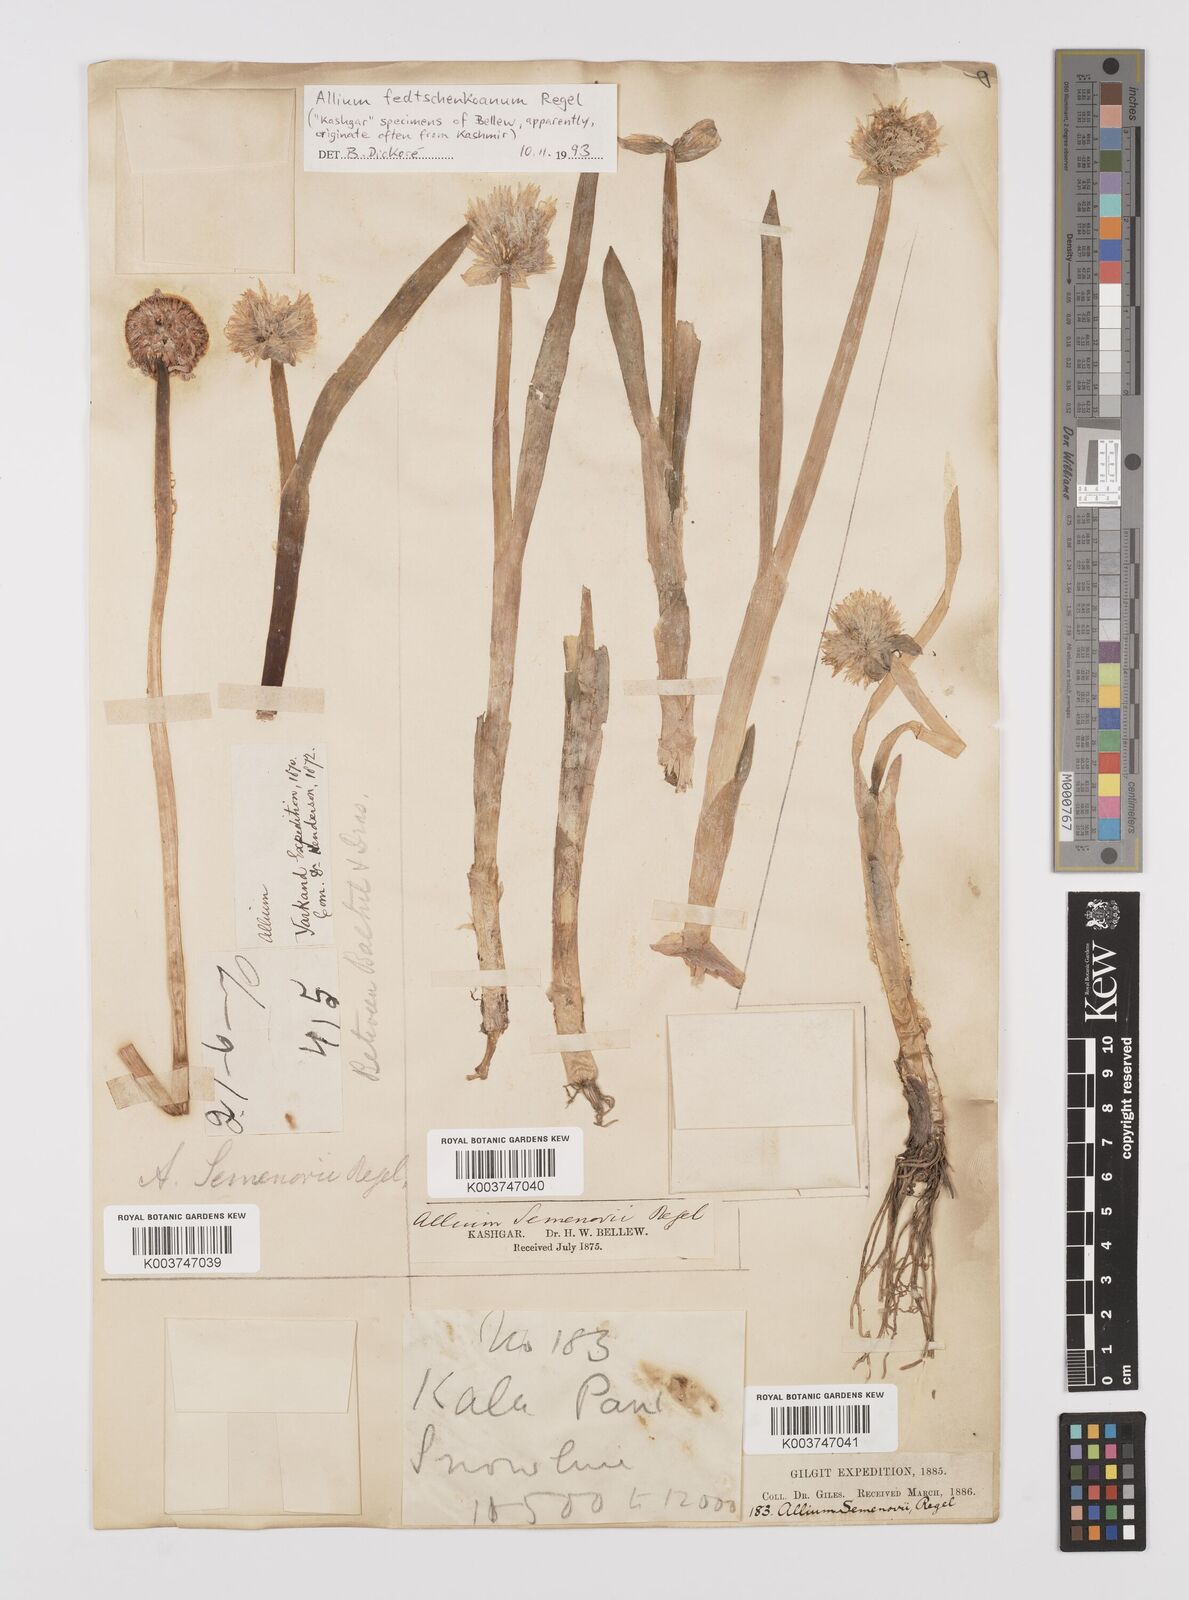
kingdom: Plantae
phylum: Tracheophyta
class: Liliopsida
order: Asparagales
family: Amaryllidaceae
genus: Allium
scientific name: Allium fedtschenkoi
